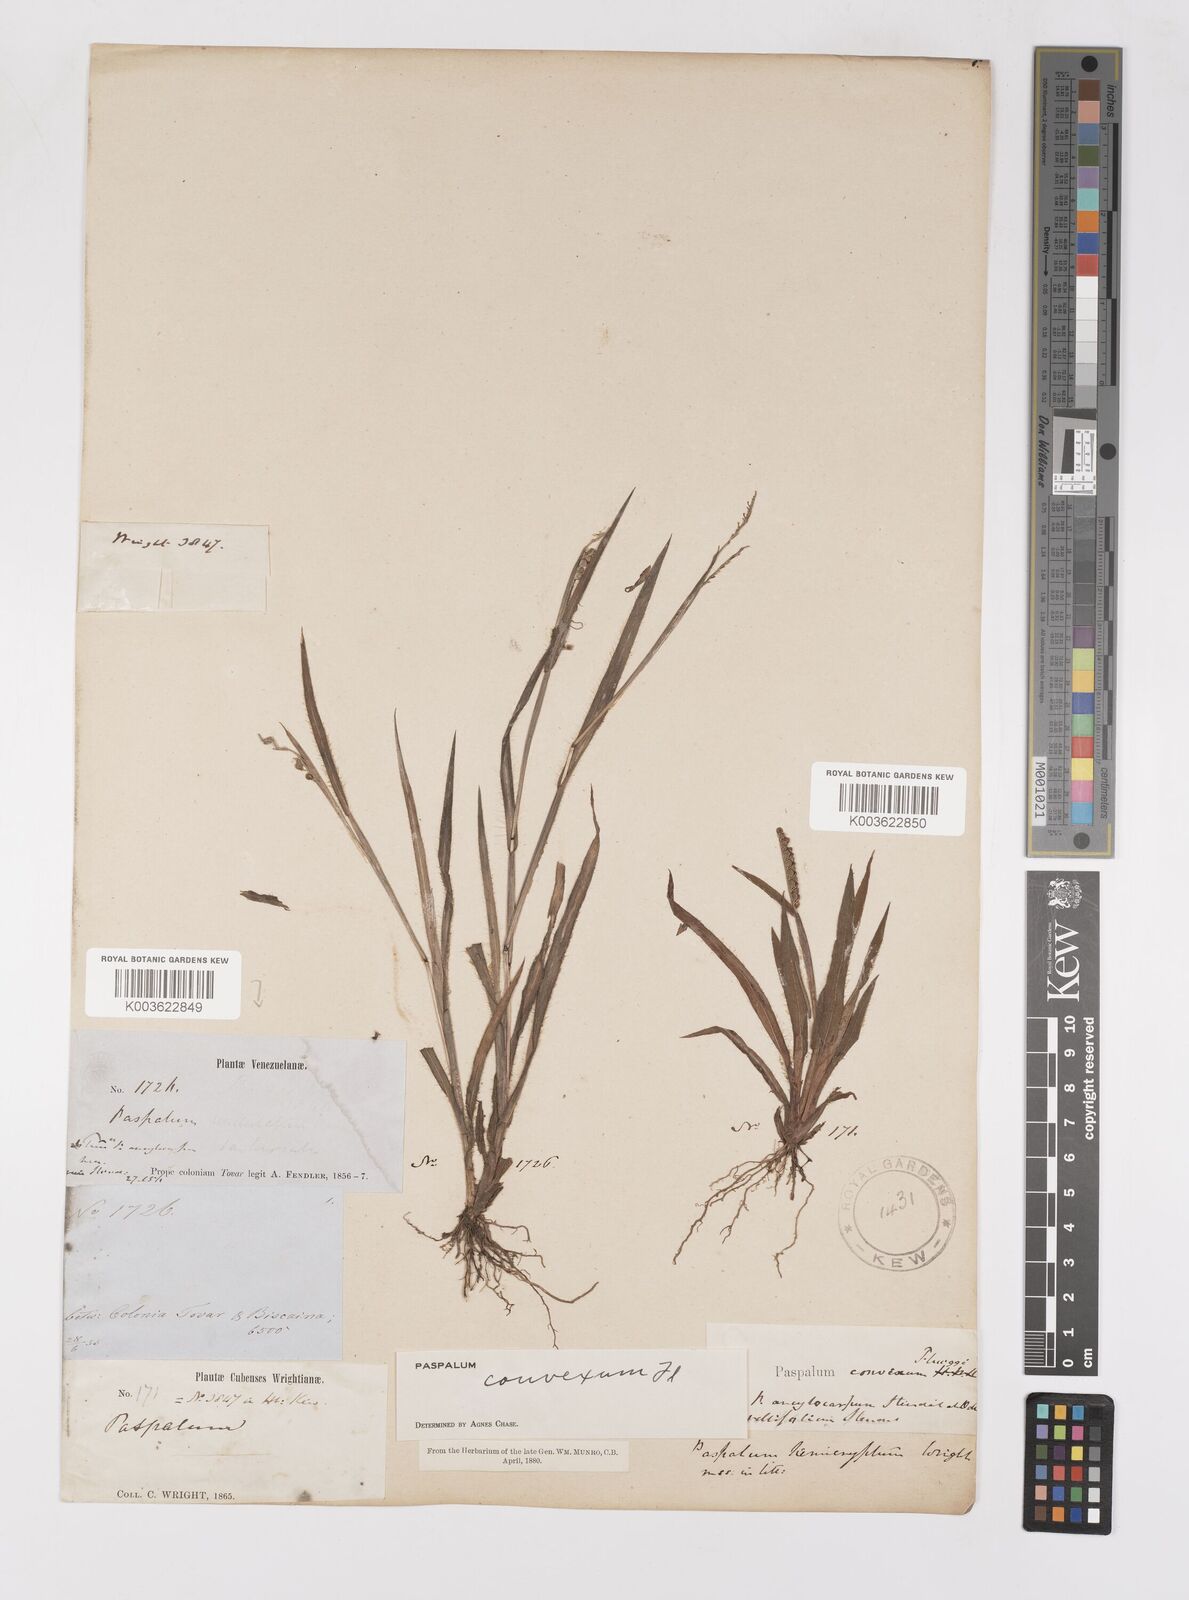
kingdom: Plantae
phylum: Tracheophyta
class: Liliopsida
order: Poales
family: Poaceae
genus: Paspalum
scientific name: Paspalum glabrinode
